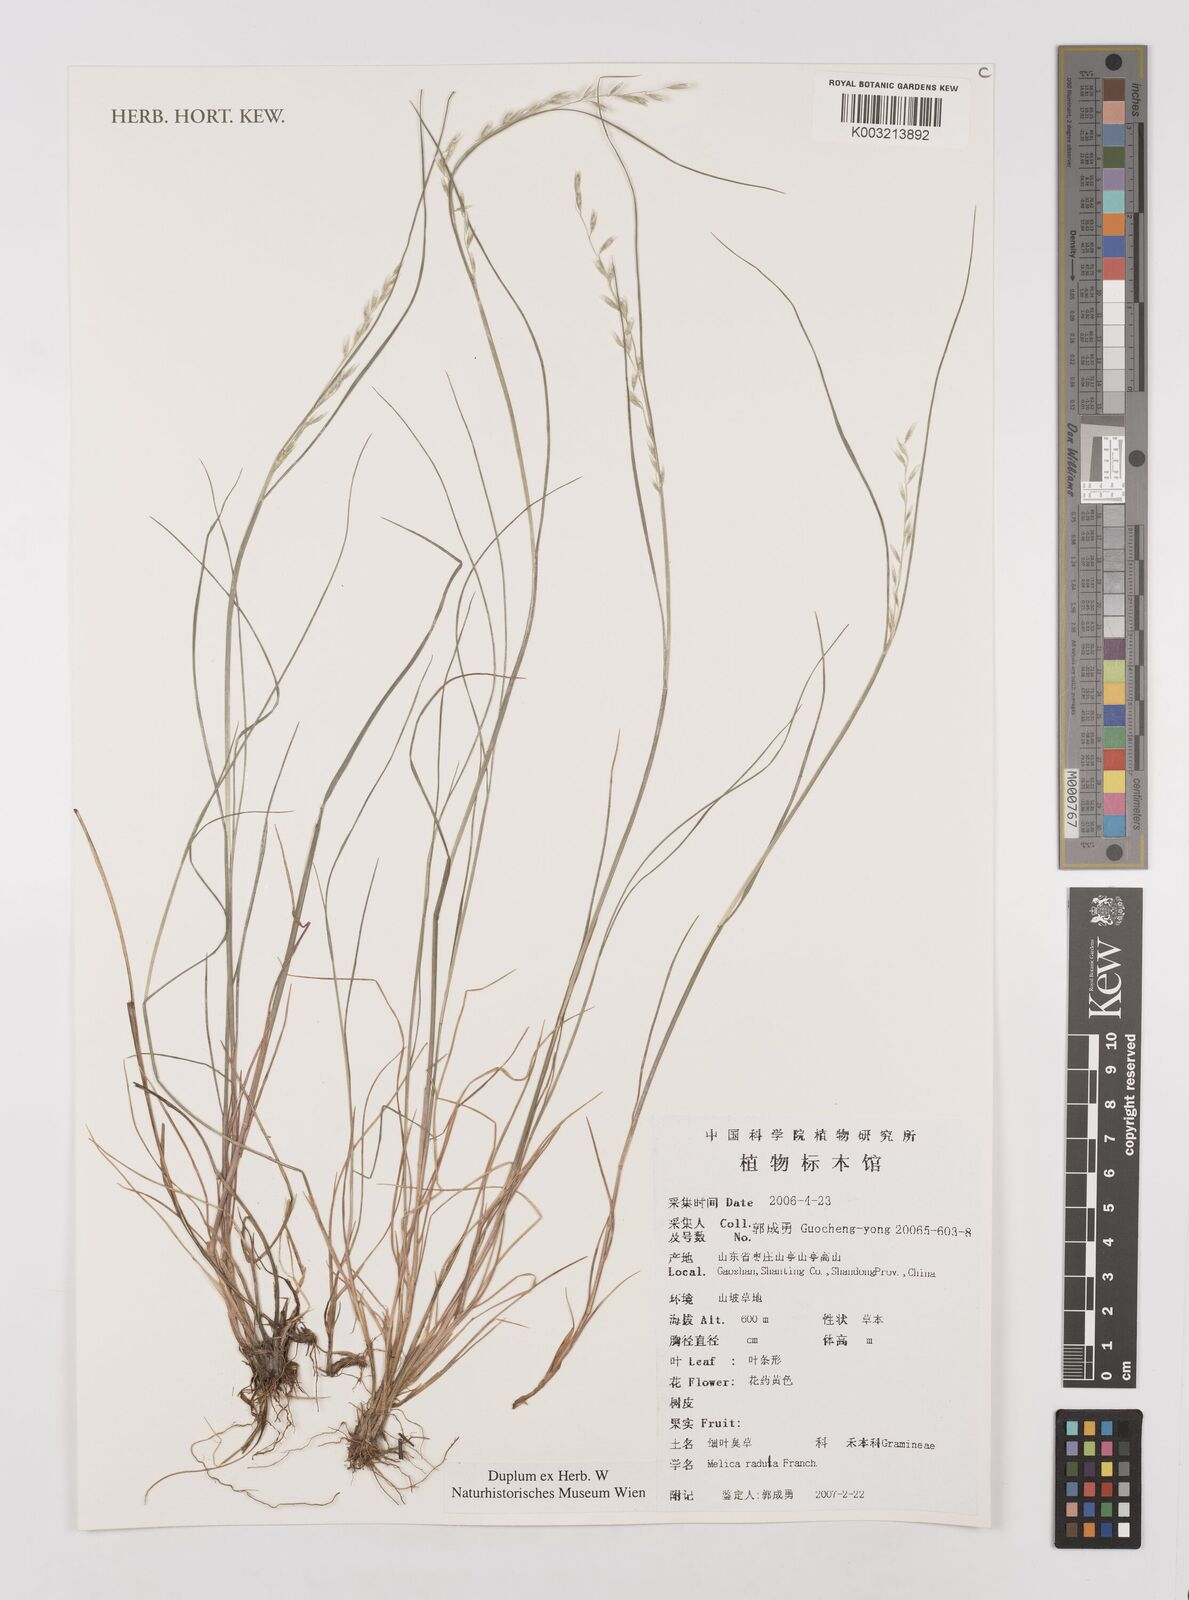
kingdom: Plantae
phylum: Tracheophyta
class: Liliopsida
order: Poales
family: Poaceae
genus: Melica
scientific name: Melica radula
